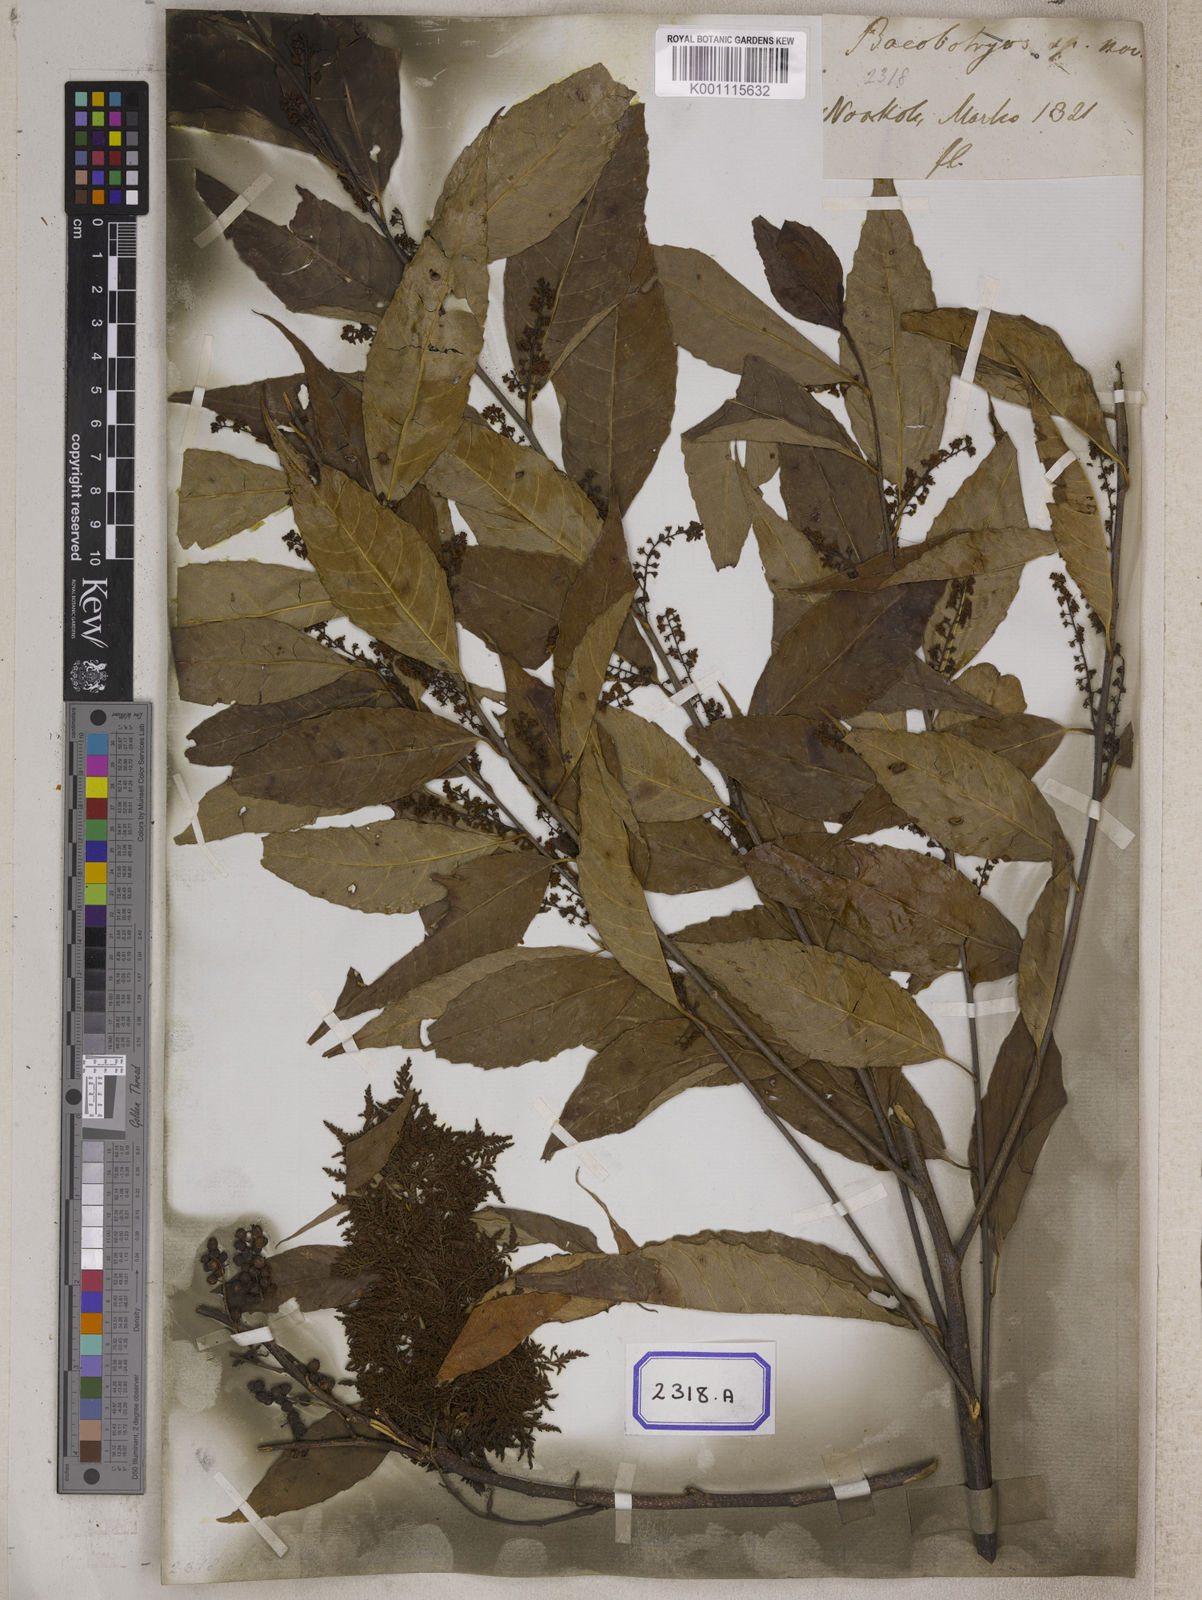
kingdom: Plantae
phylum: Tracheophyta
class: Magnoliopsida
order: Ericales
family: Primulaceae
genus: Maesa
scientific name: Maesa indica
